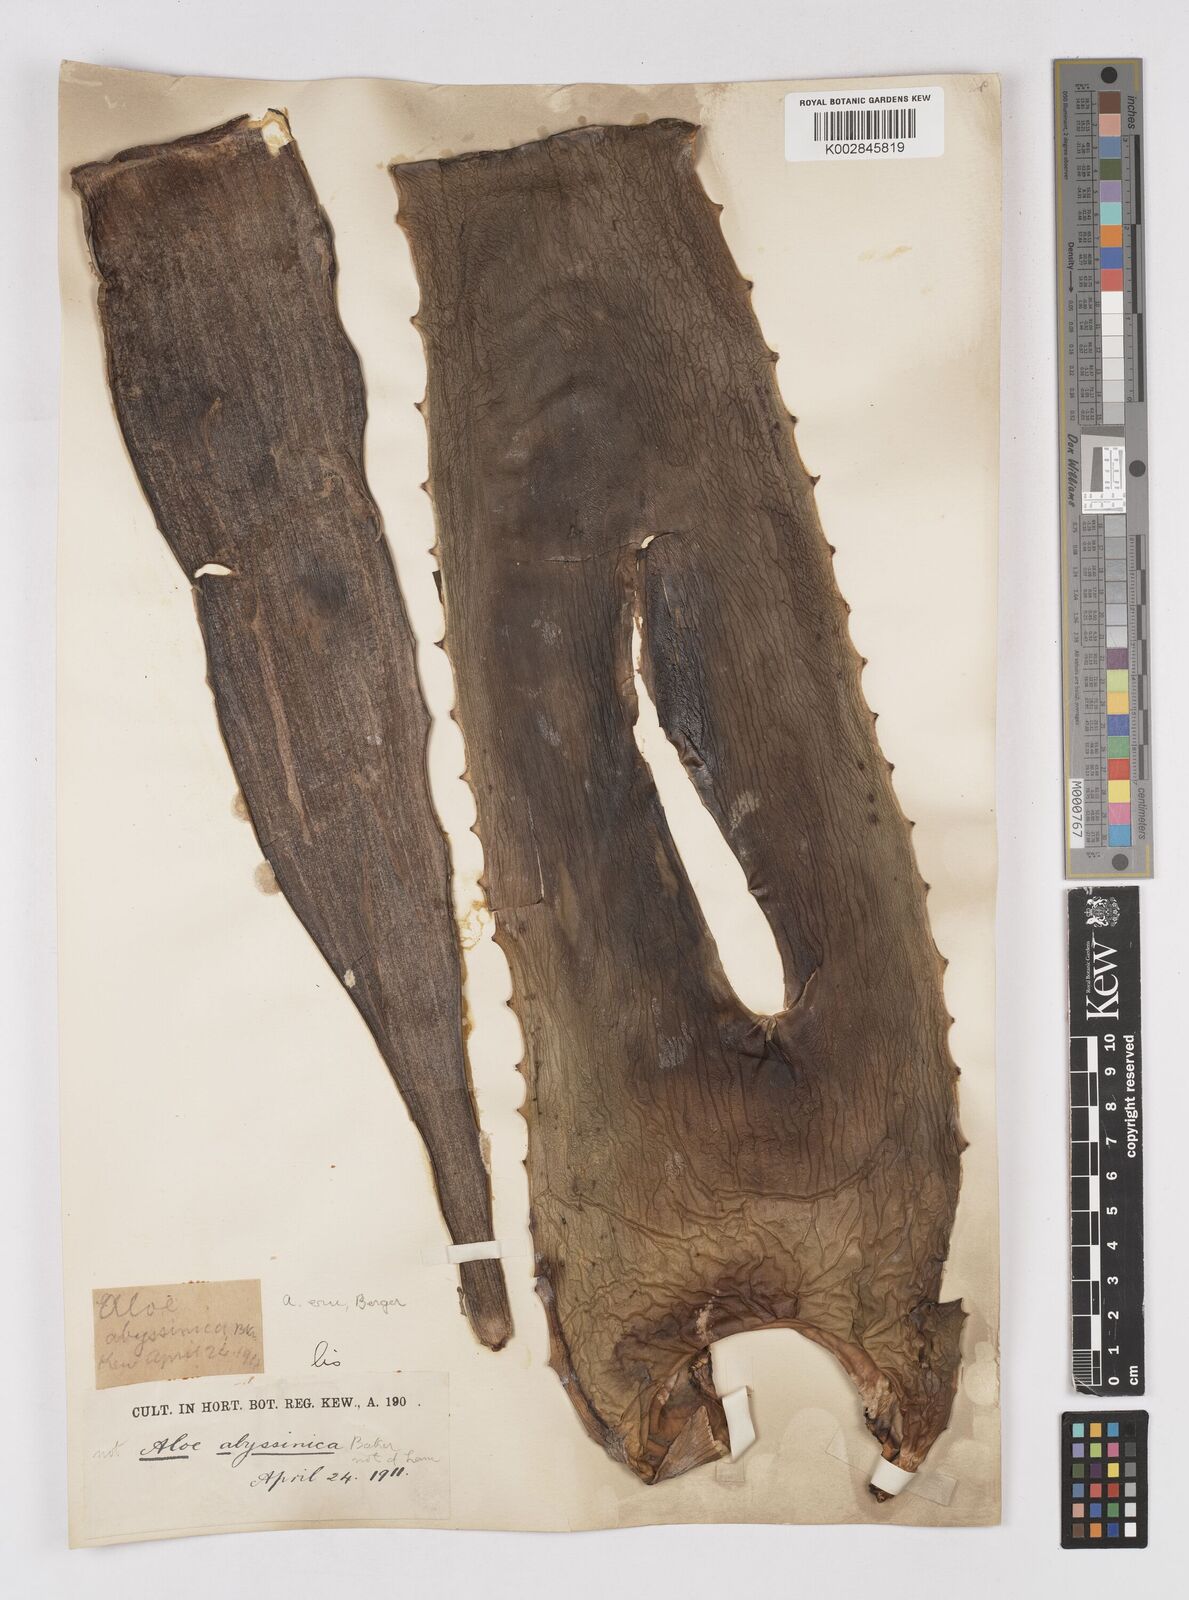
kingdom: Plantae
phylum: Tracheophyta
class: Liliopsida
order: Asparagales
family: Asphodelaceae
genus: Aloe
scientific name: Aloe camperi
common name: Camper's aloe
